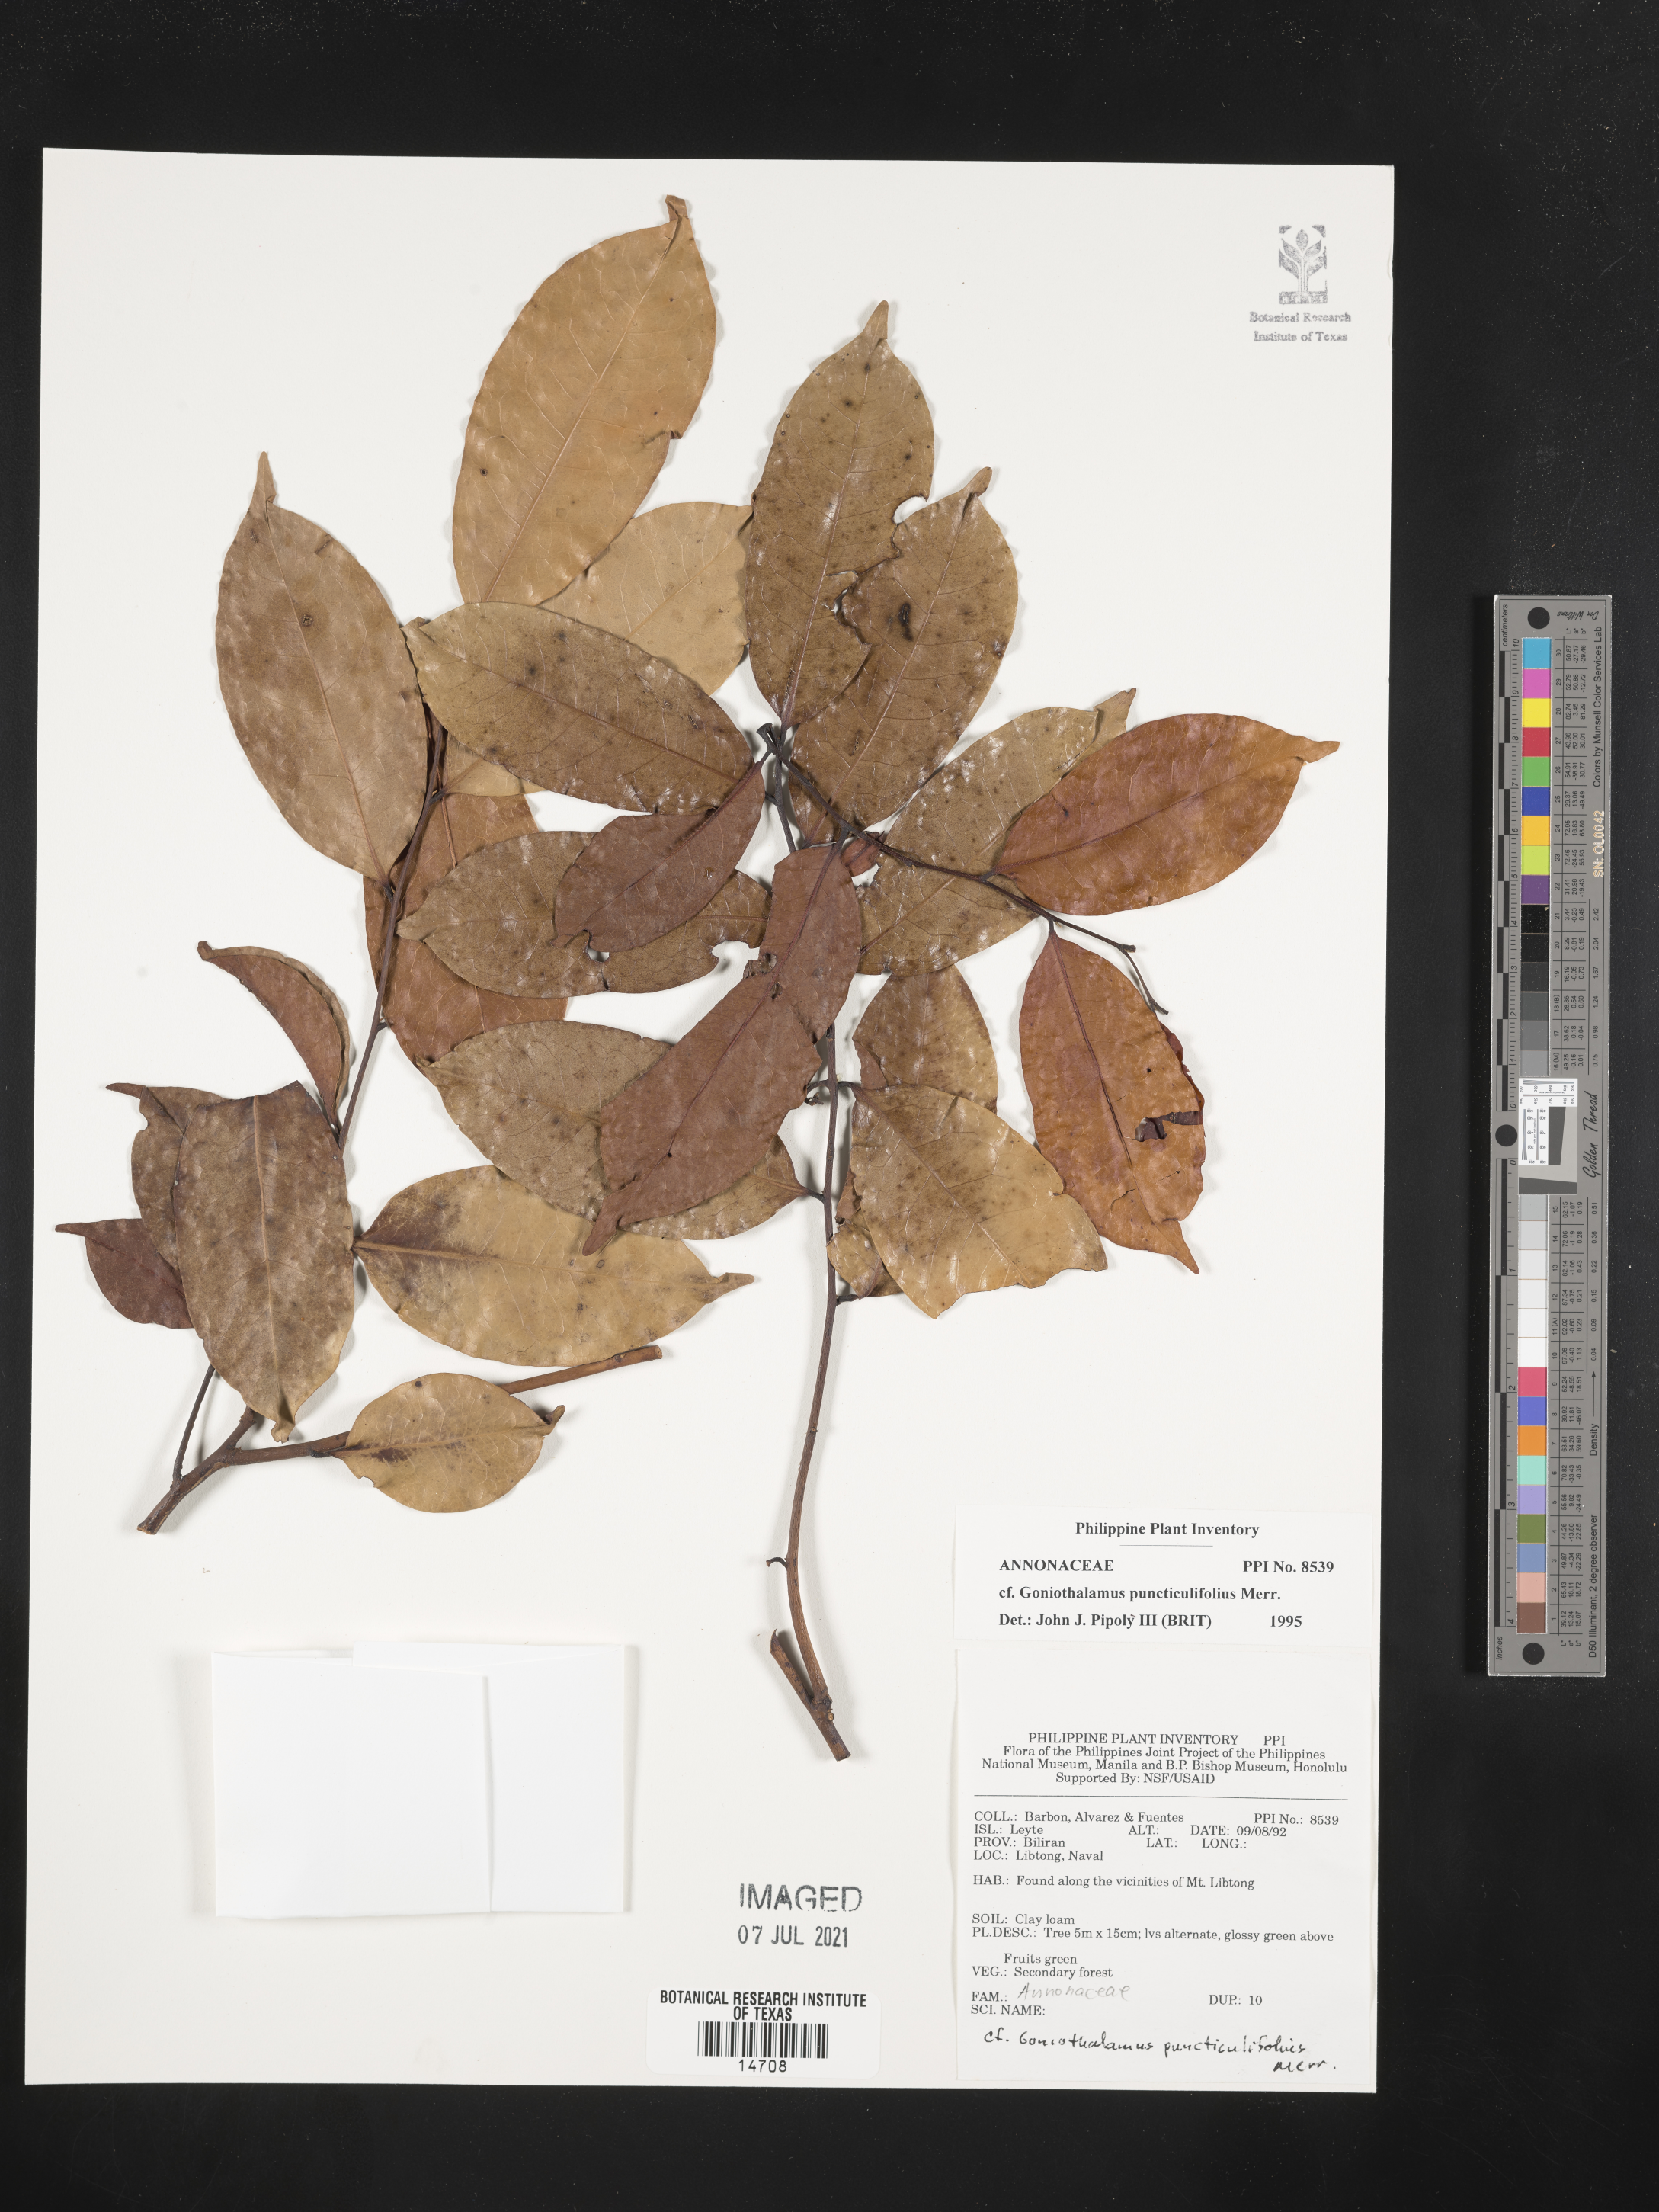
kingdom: Plantae
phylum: Tracheophyta
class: Magnoliopsida
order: Magnoliales
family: Annonaceae
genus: Goniothalamus
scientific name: Goniothalamus puncticulifolius
